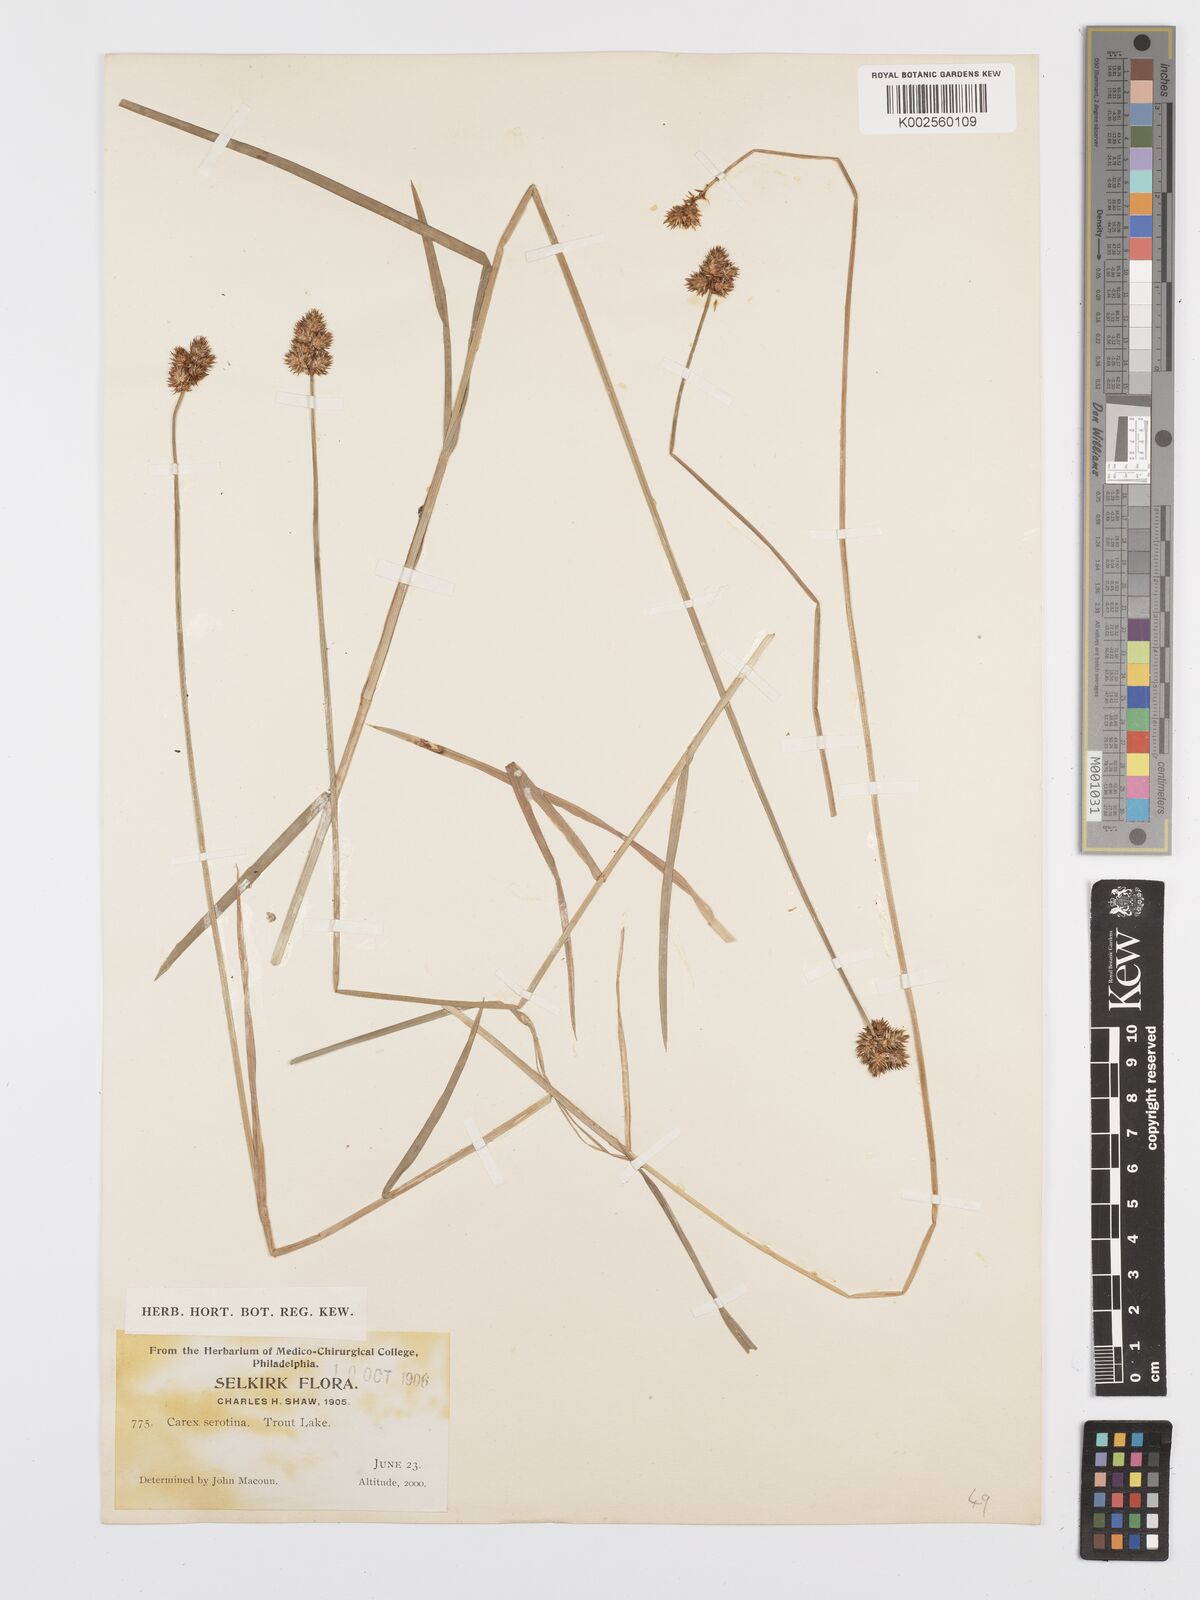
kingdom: Plantae
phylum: Tracheophyta
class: Liliopsida
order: Poales
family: Cyperaceae
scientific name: Cyperaceae
